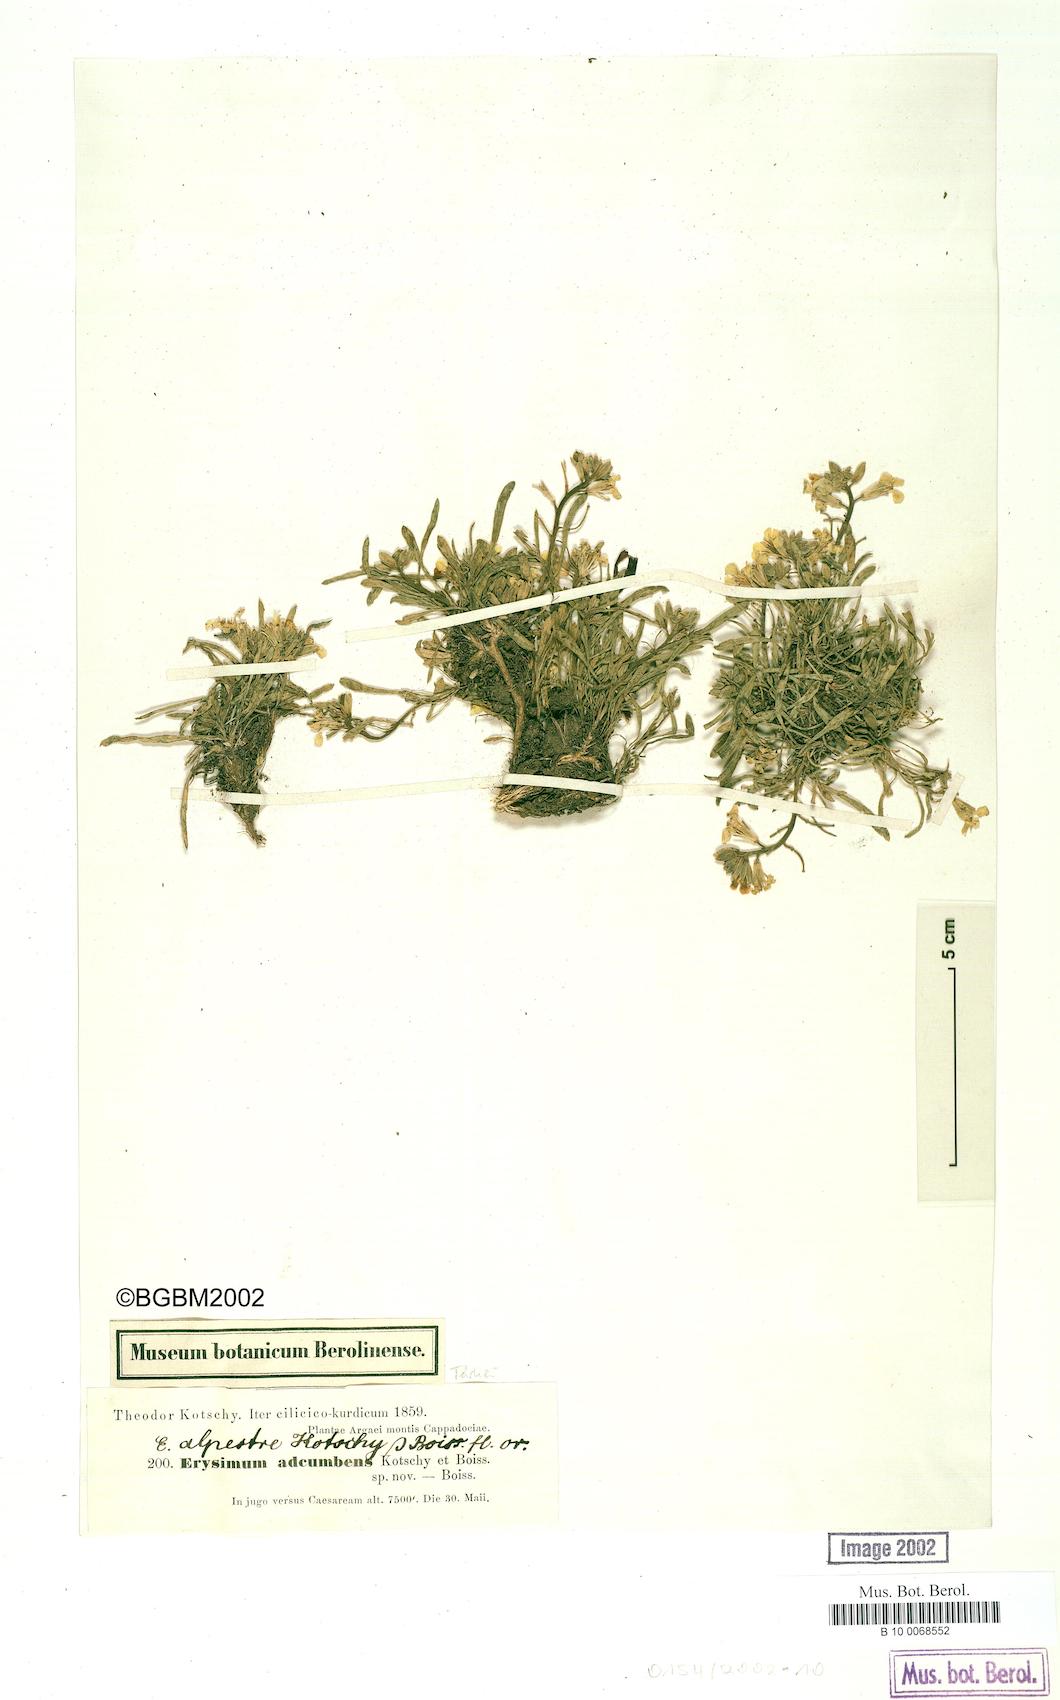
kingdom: Plantae
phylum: Tracheophyta
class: Magnoliopsida
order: Brassicales
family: Brassicaceae
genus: Erysimum
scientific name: Erysimum adcumbens
